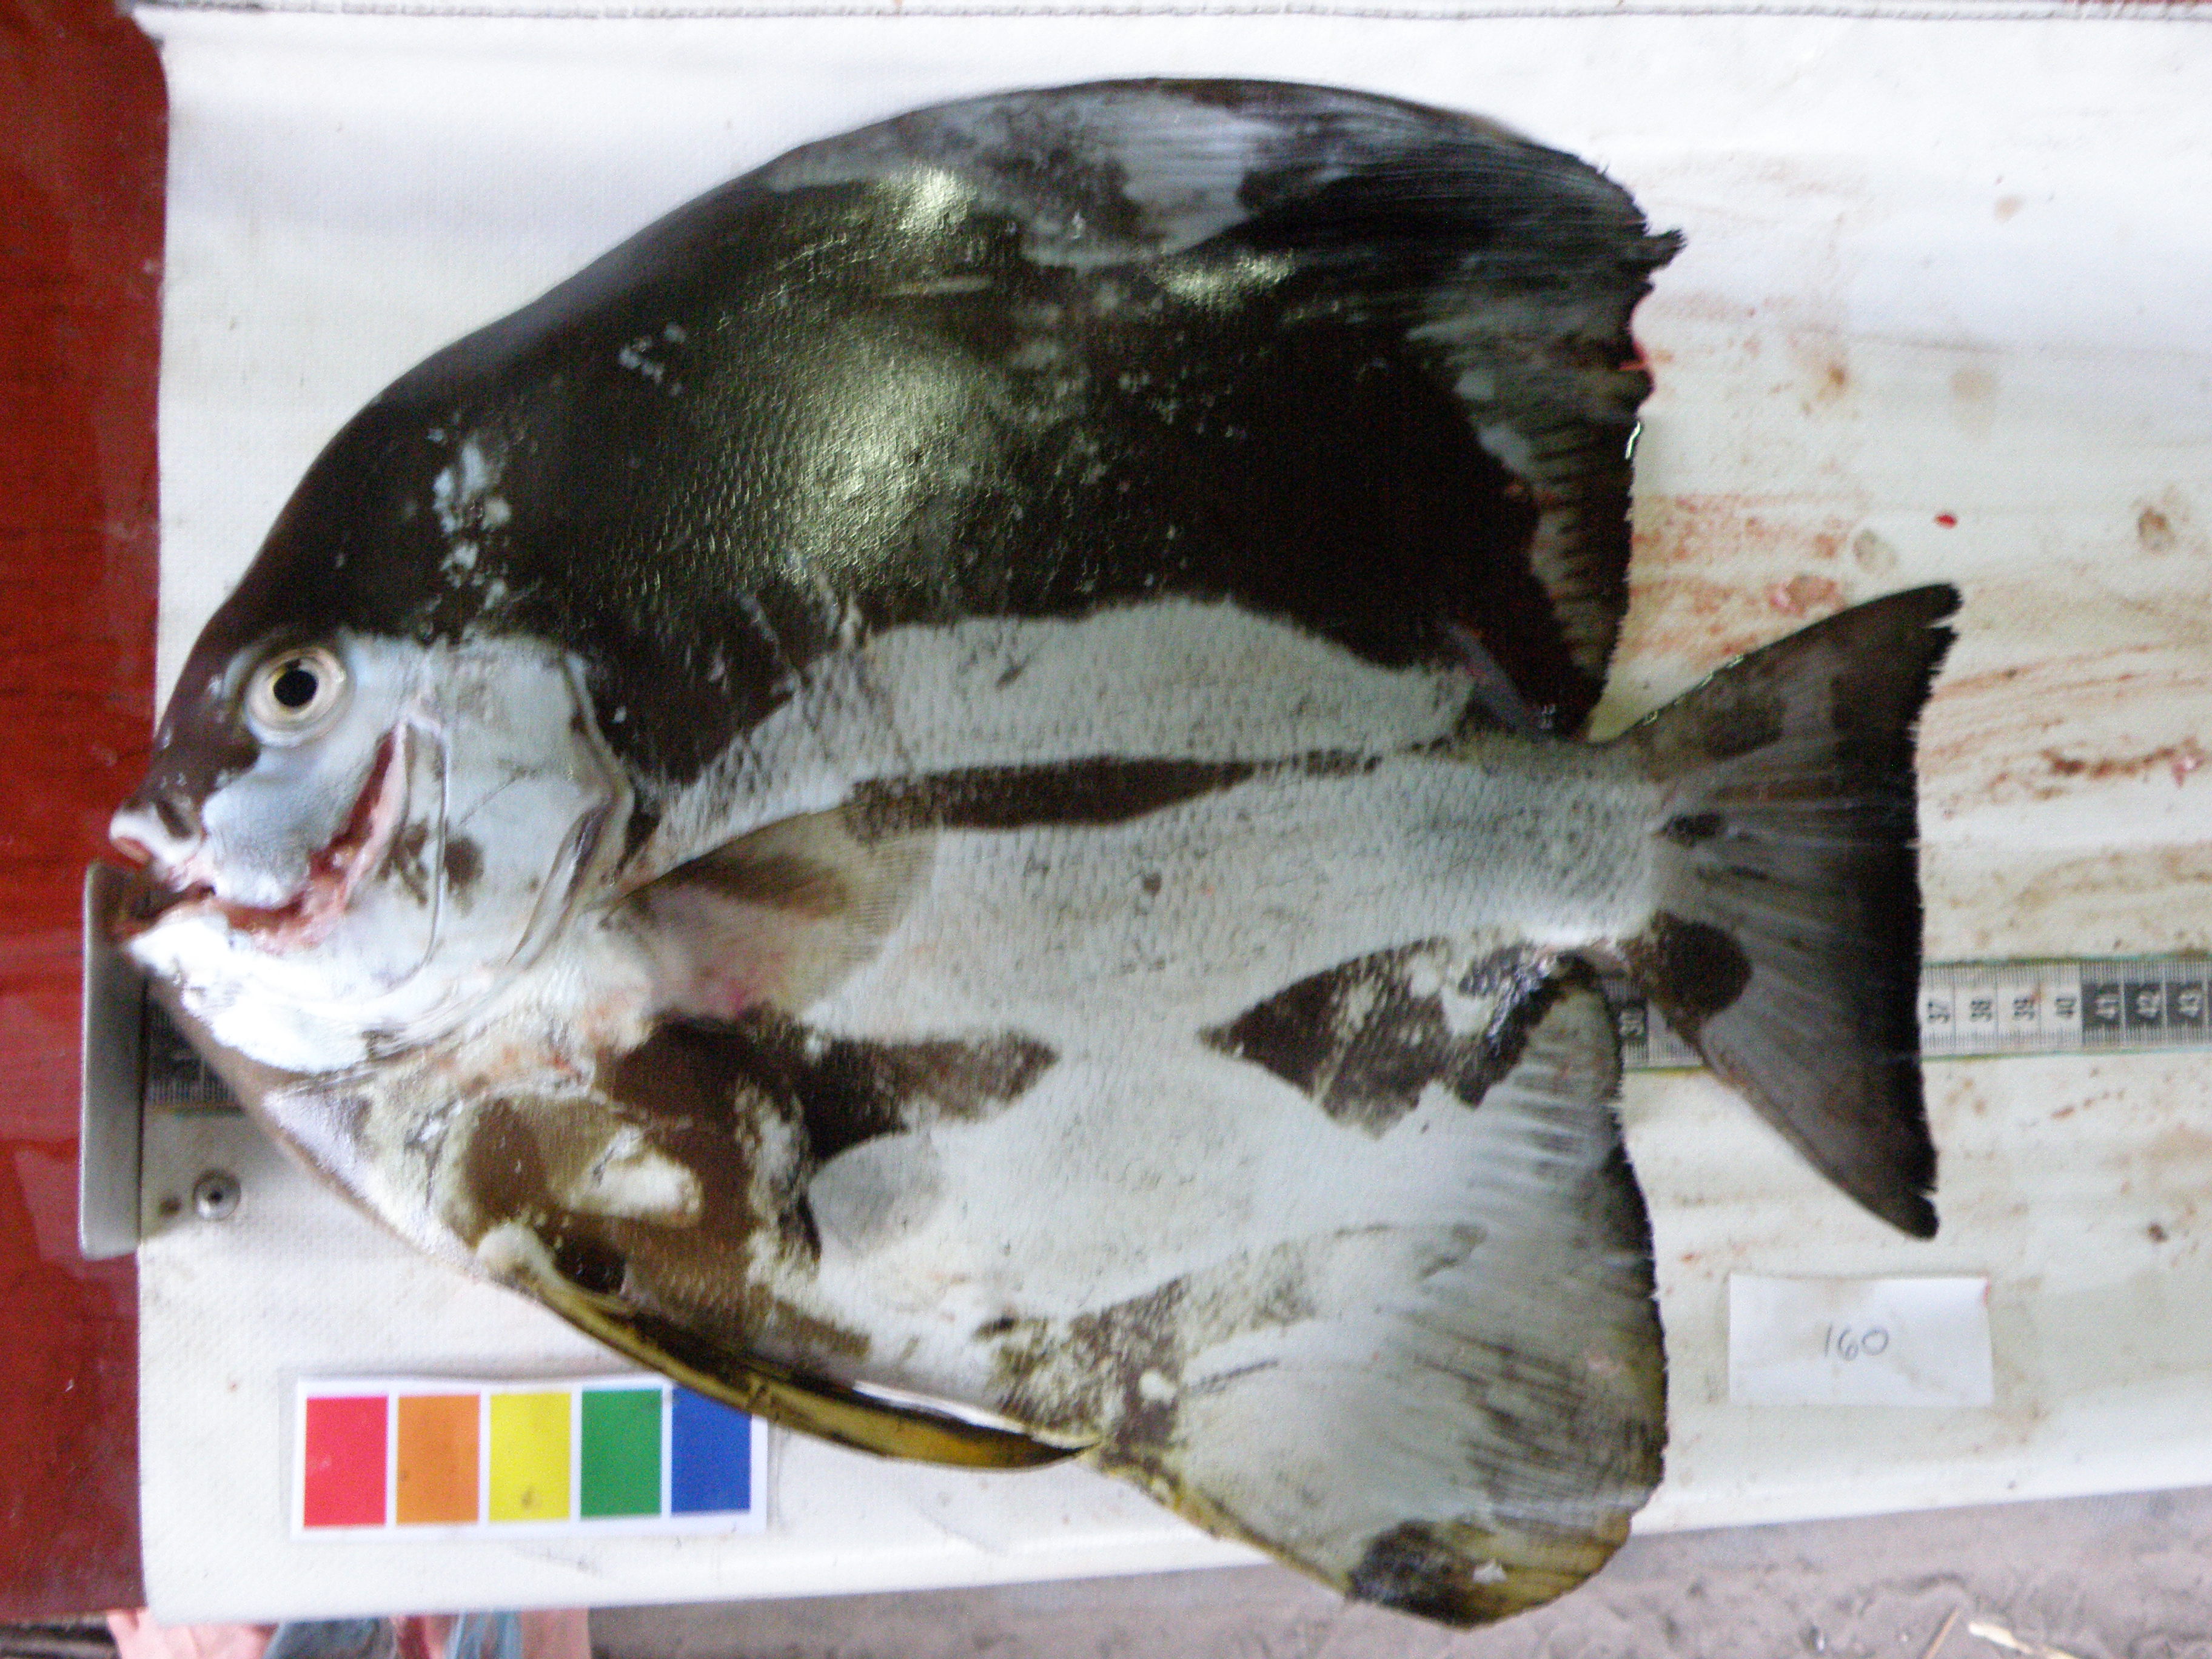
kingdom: Animalia
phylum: Chordata
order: Perciformes
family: Ephippidae
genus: Platax
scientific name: Platax teira
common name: Longfin baitfish
